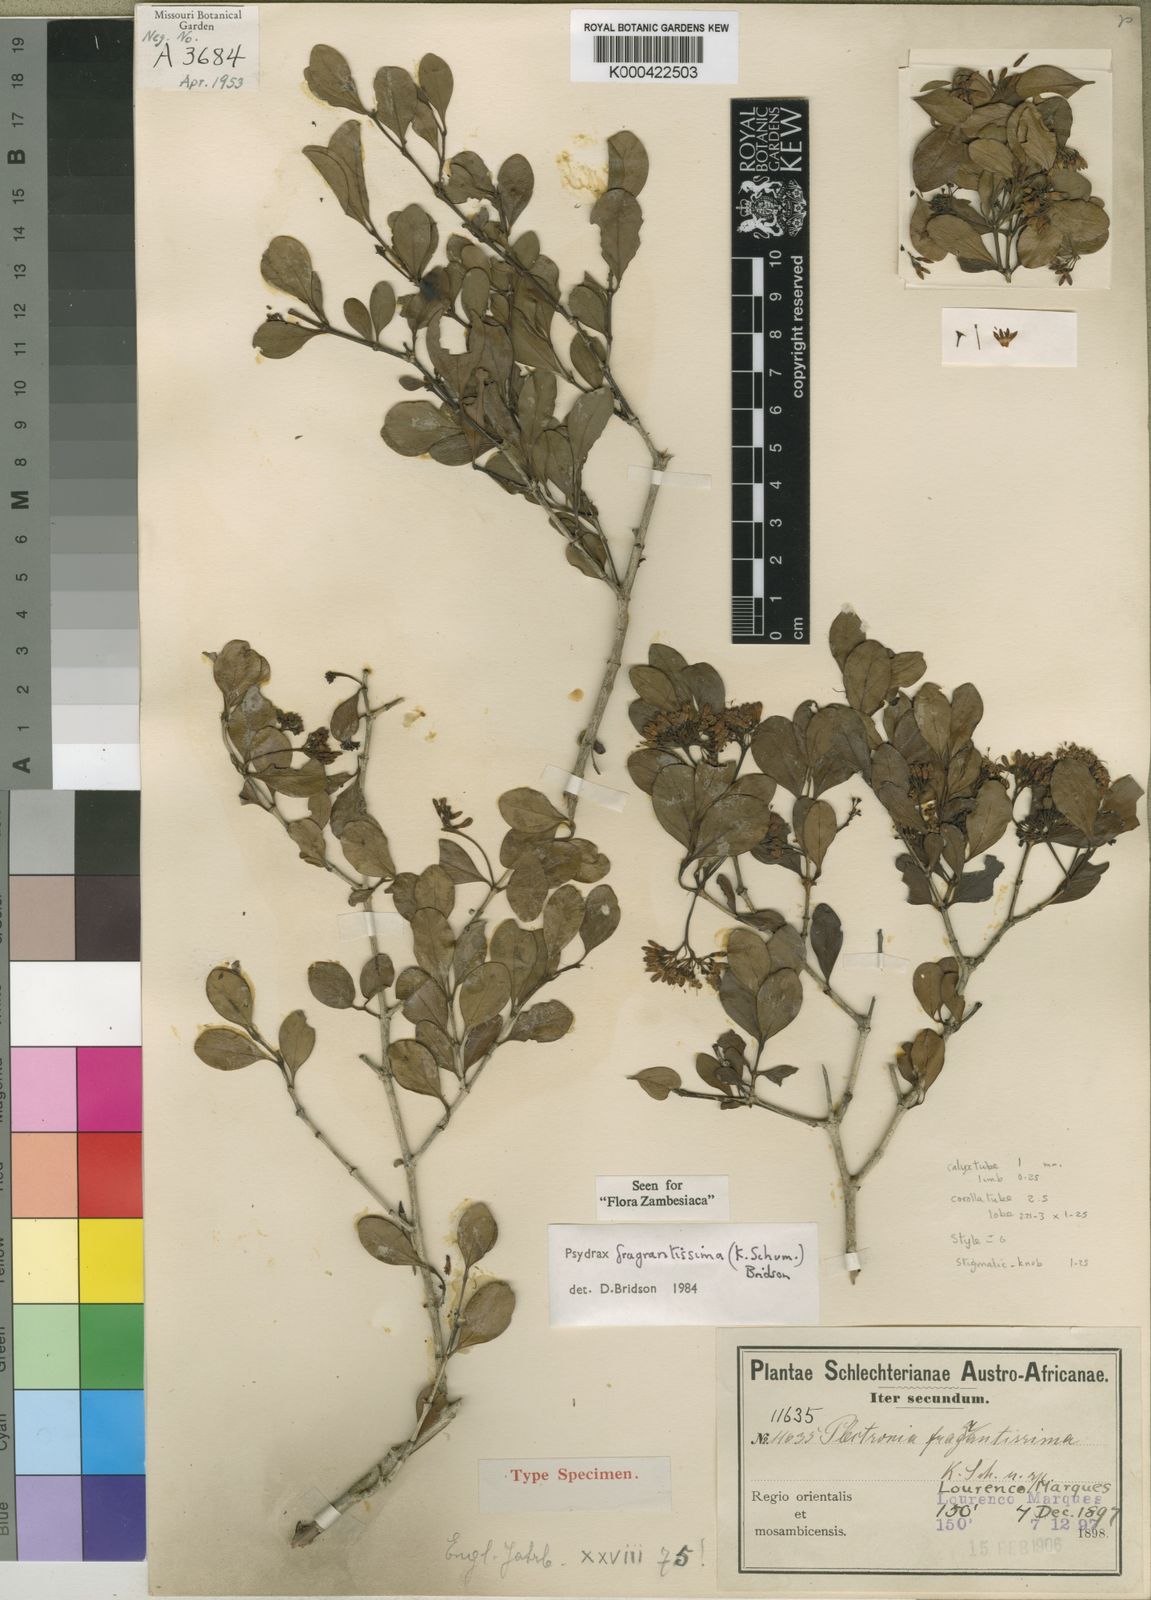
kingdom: Plantae
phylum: Tracheophyta
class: Magnoliopsida
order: Gentianales
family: Rubiaceae
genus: Psydrax
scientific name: Psydrax fragrantissimus
